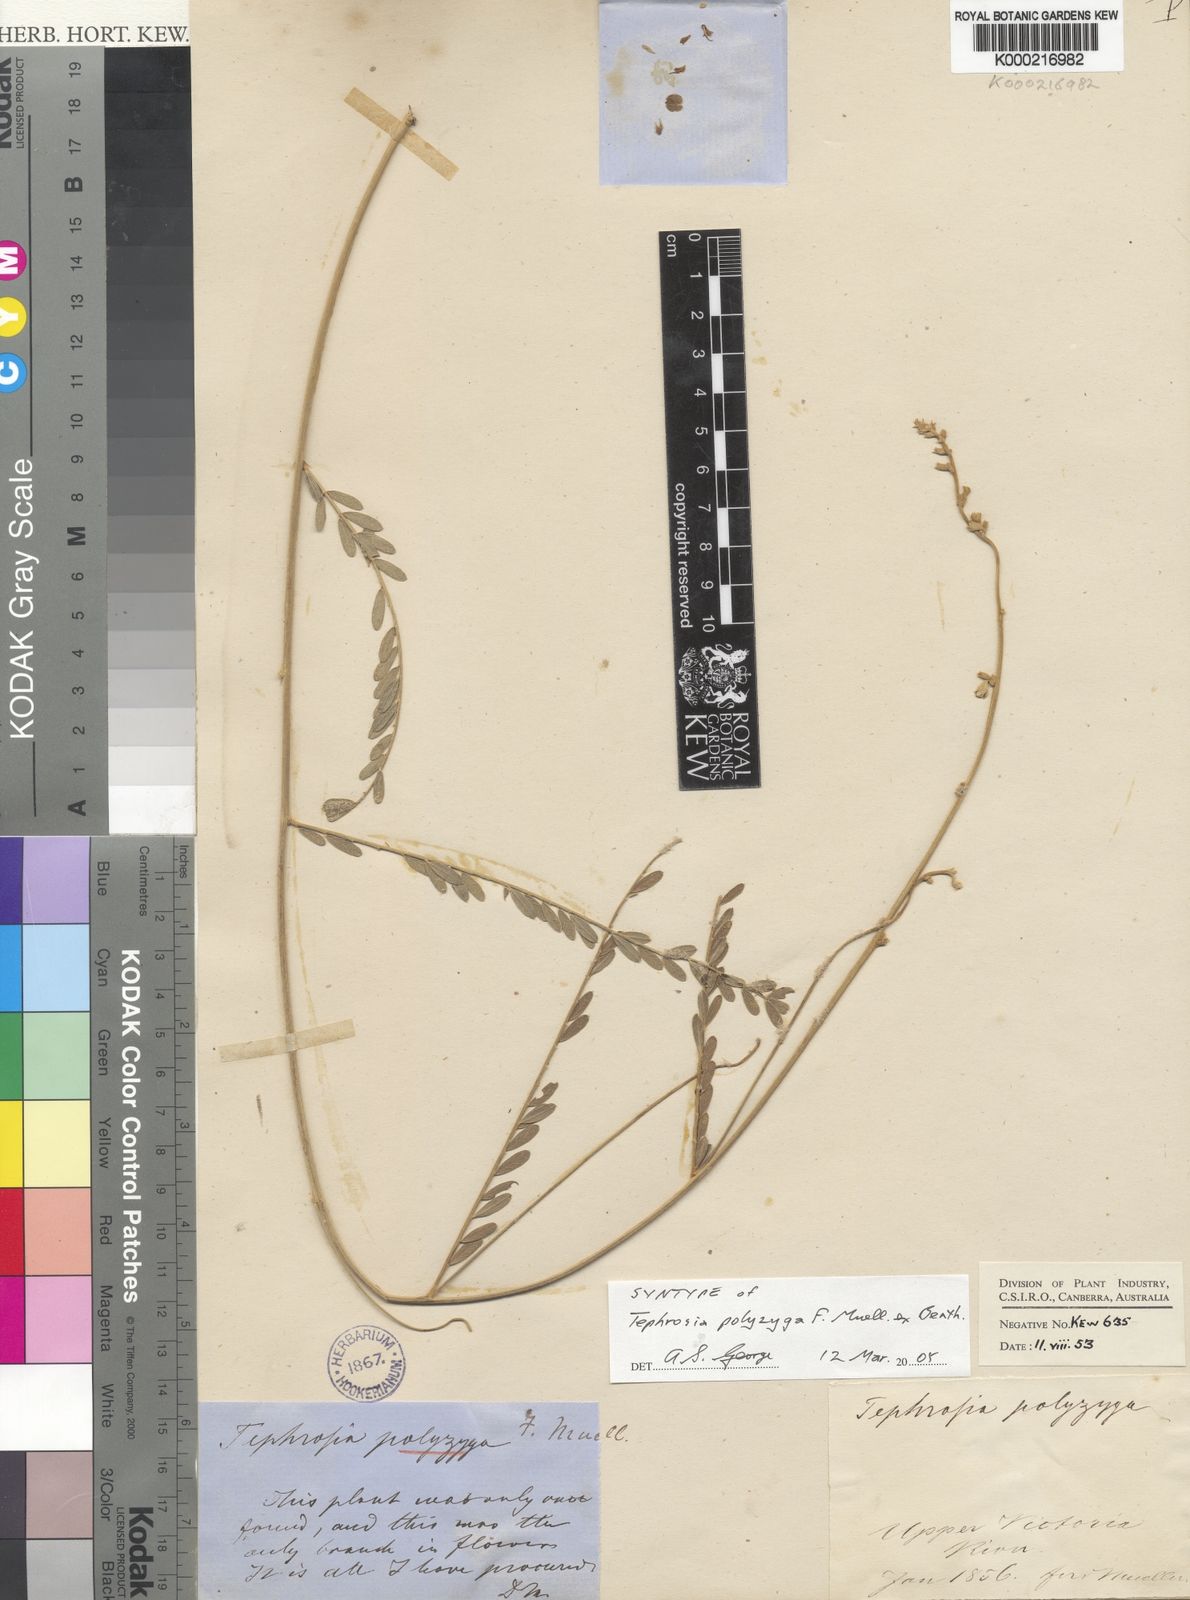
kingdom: Plantae
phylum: Tracheophyta
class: Magnoliopsida
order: Fabales
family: Fabaceae
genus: Tephrosia
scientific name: Tephrosia polyzyga
